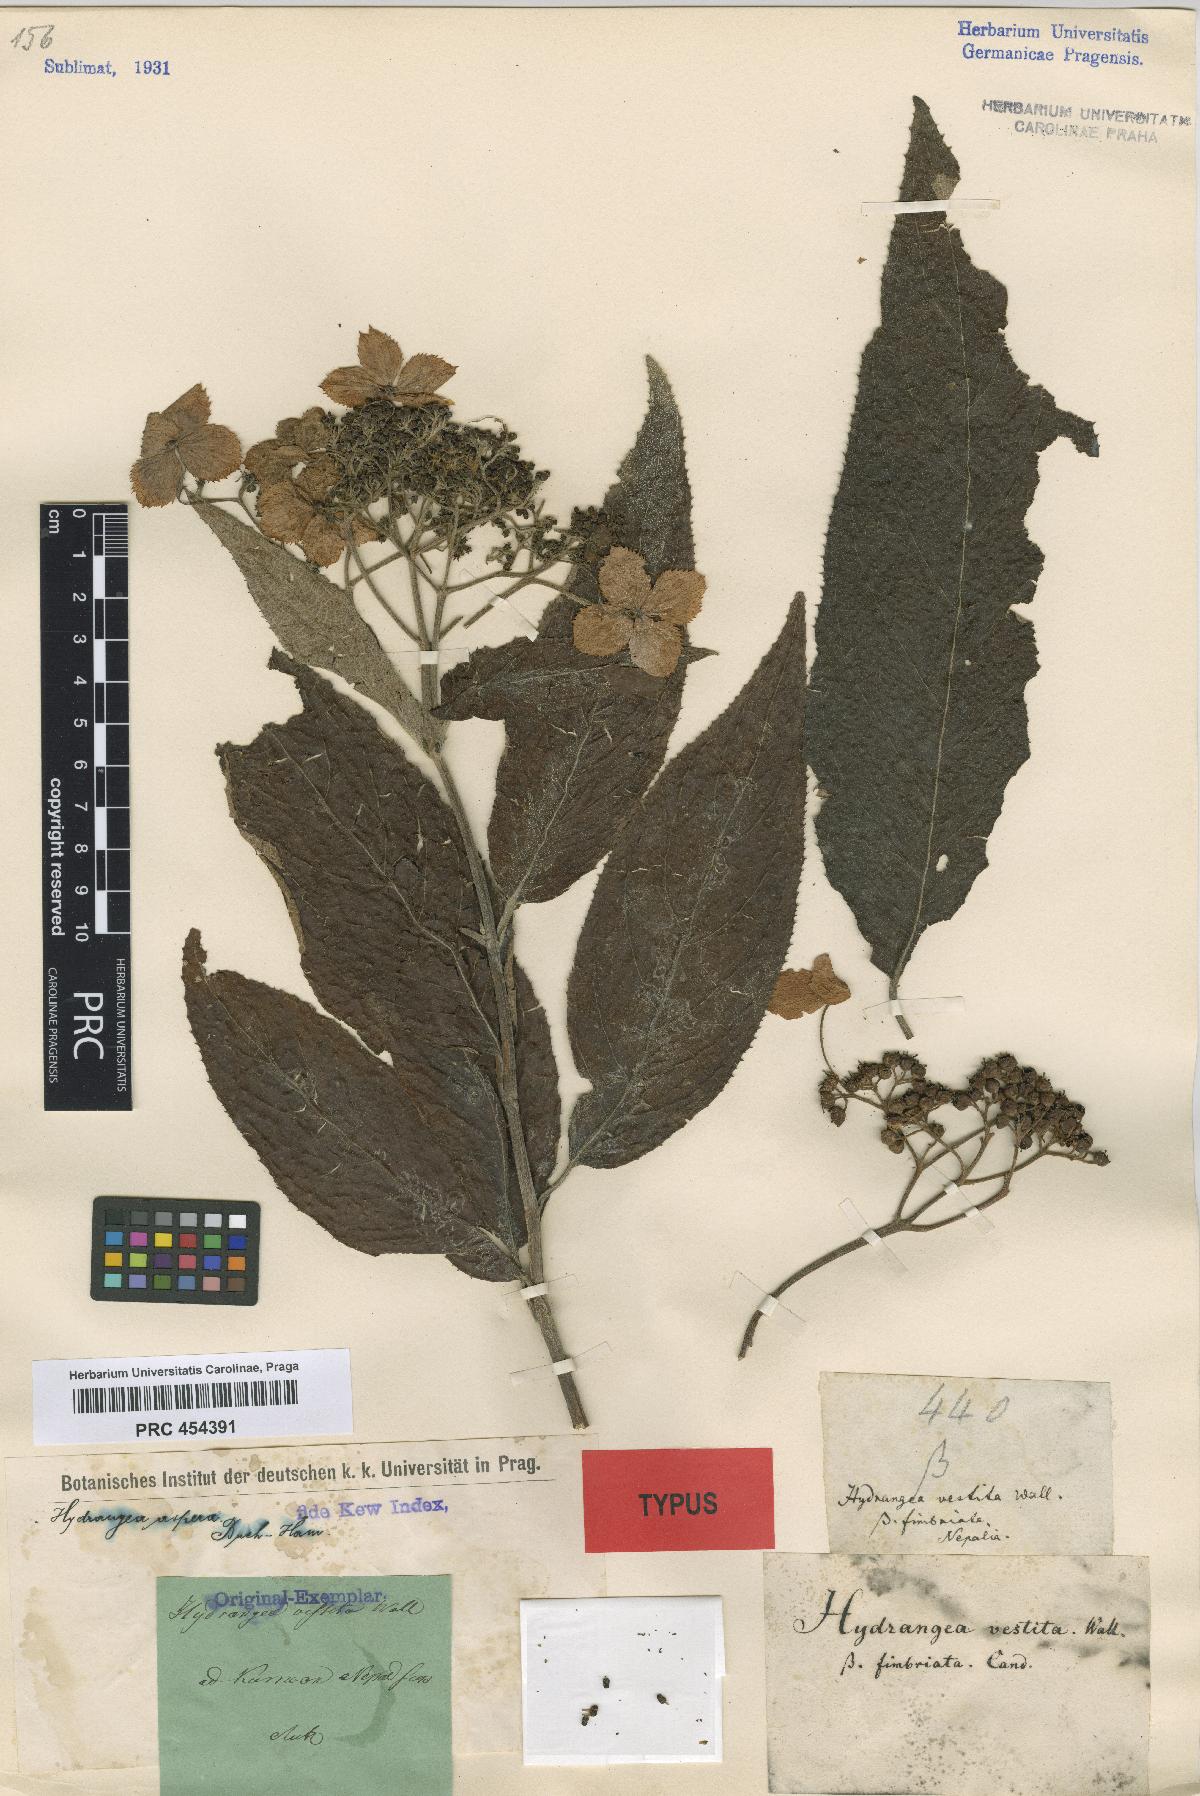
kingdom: Plantae
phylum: Tracheophyta
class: Magnoliopsida
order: Cornales
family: Hydrangeaceae
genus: Hydrangea
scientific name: Hydrangea heteromalla
